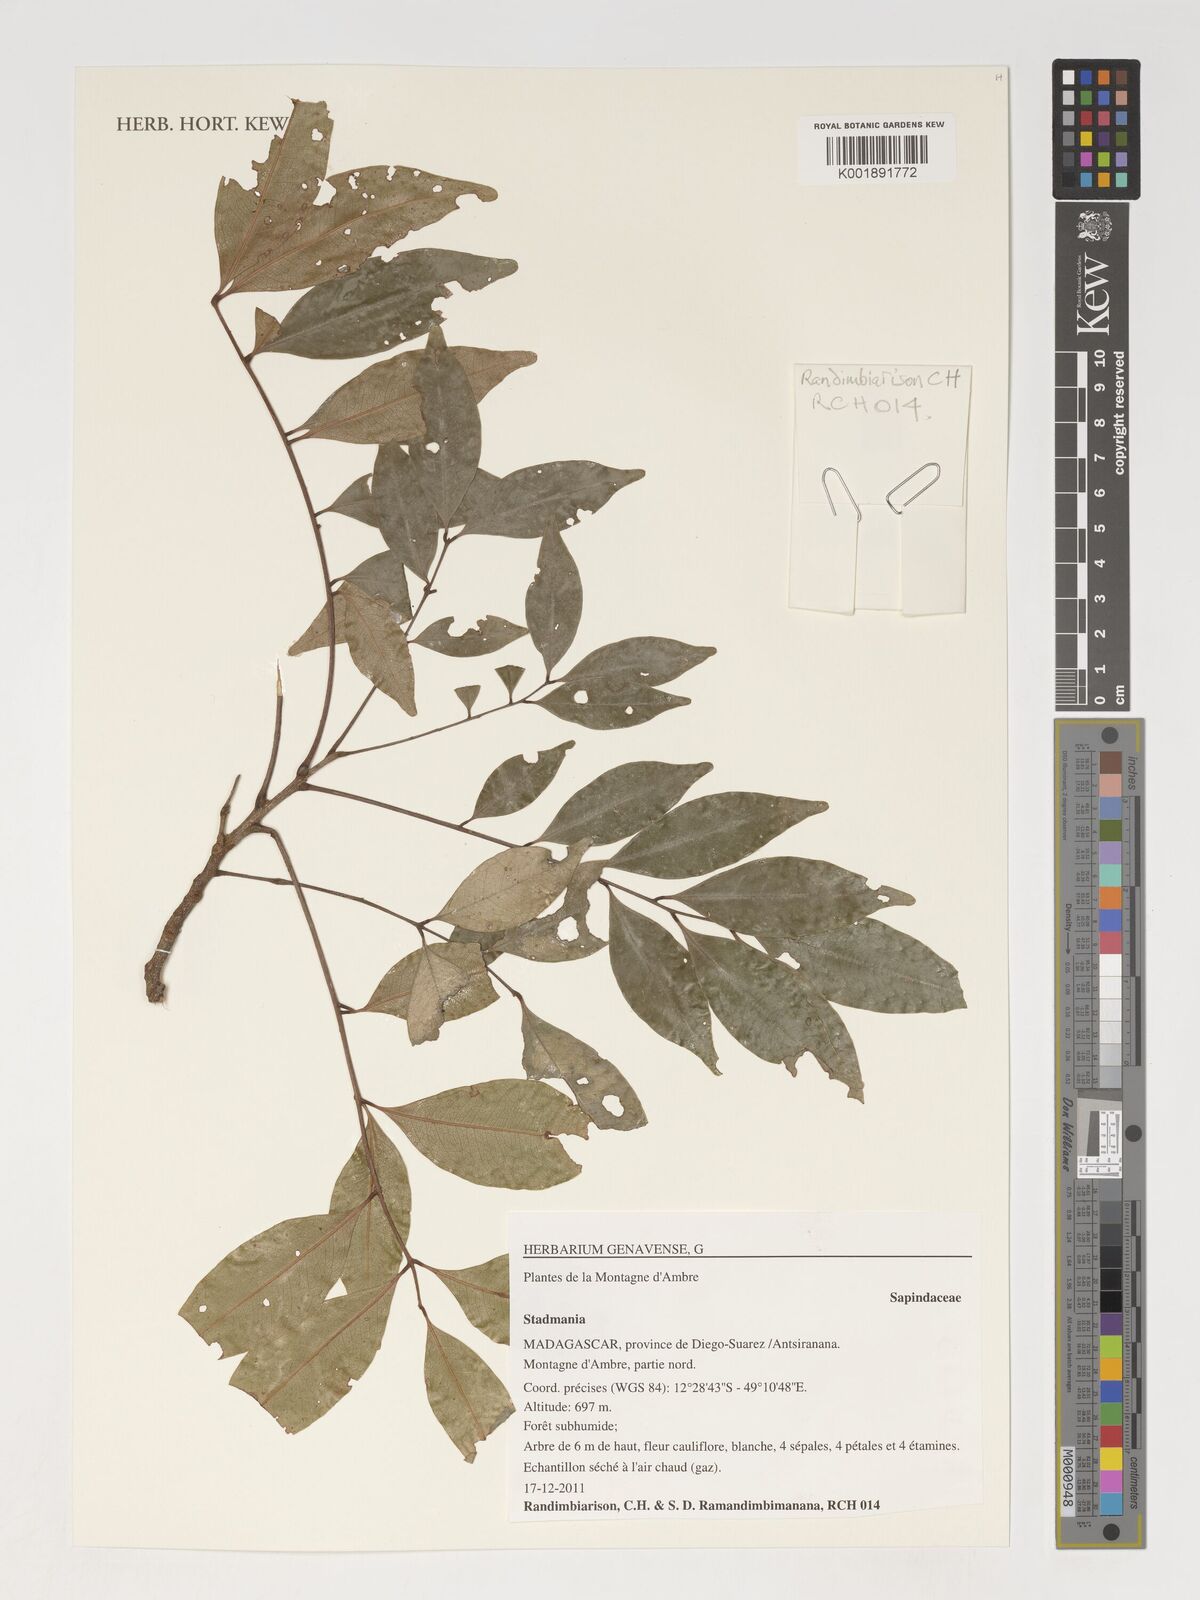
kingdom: Plantae
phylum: Tracheophyta
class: Magnoliopsida
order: Sapindales
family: Sapindaceae
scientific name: Sapindaceae
